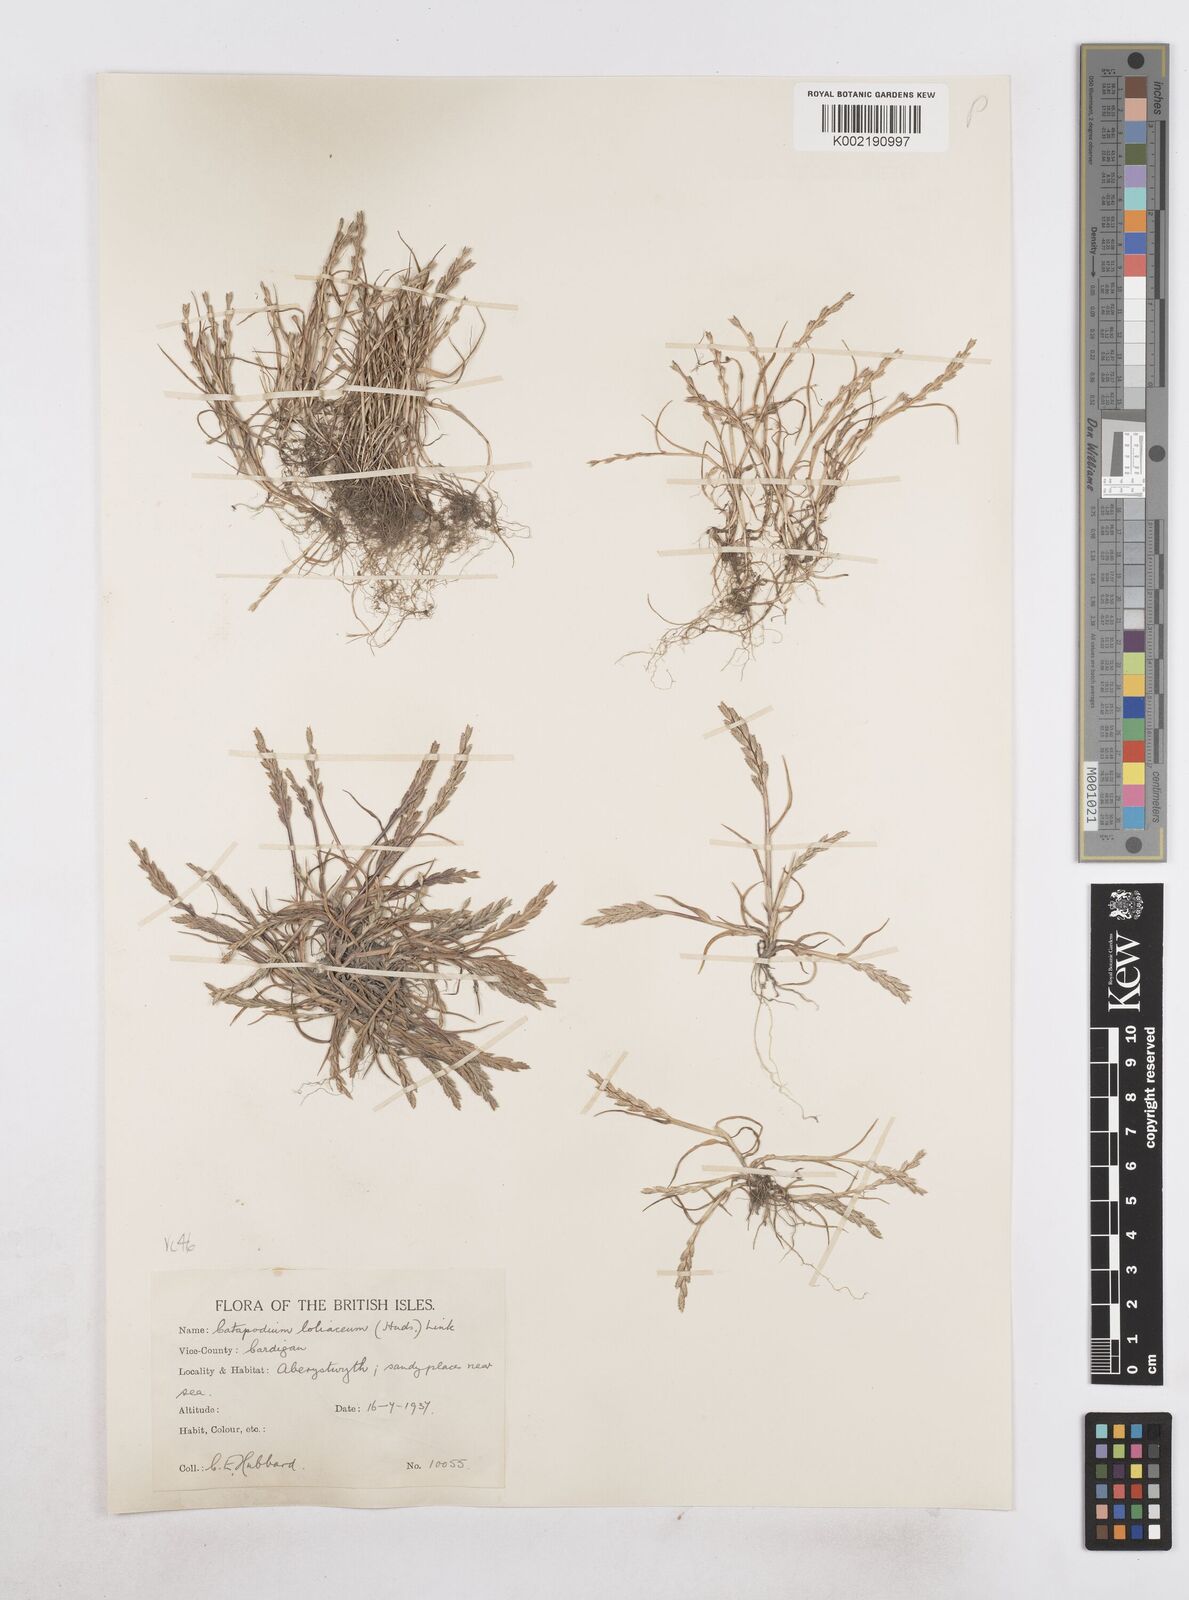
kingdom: Plantae
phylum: Tracheophyta
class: Liliopsida
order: Poales
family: Poaceae
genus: Catapodium
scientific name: Catapodium marinum
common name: Sea fern-grass
